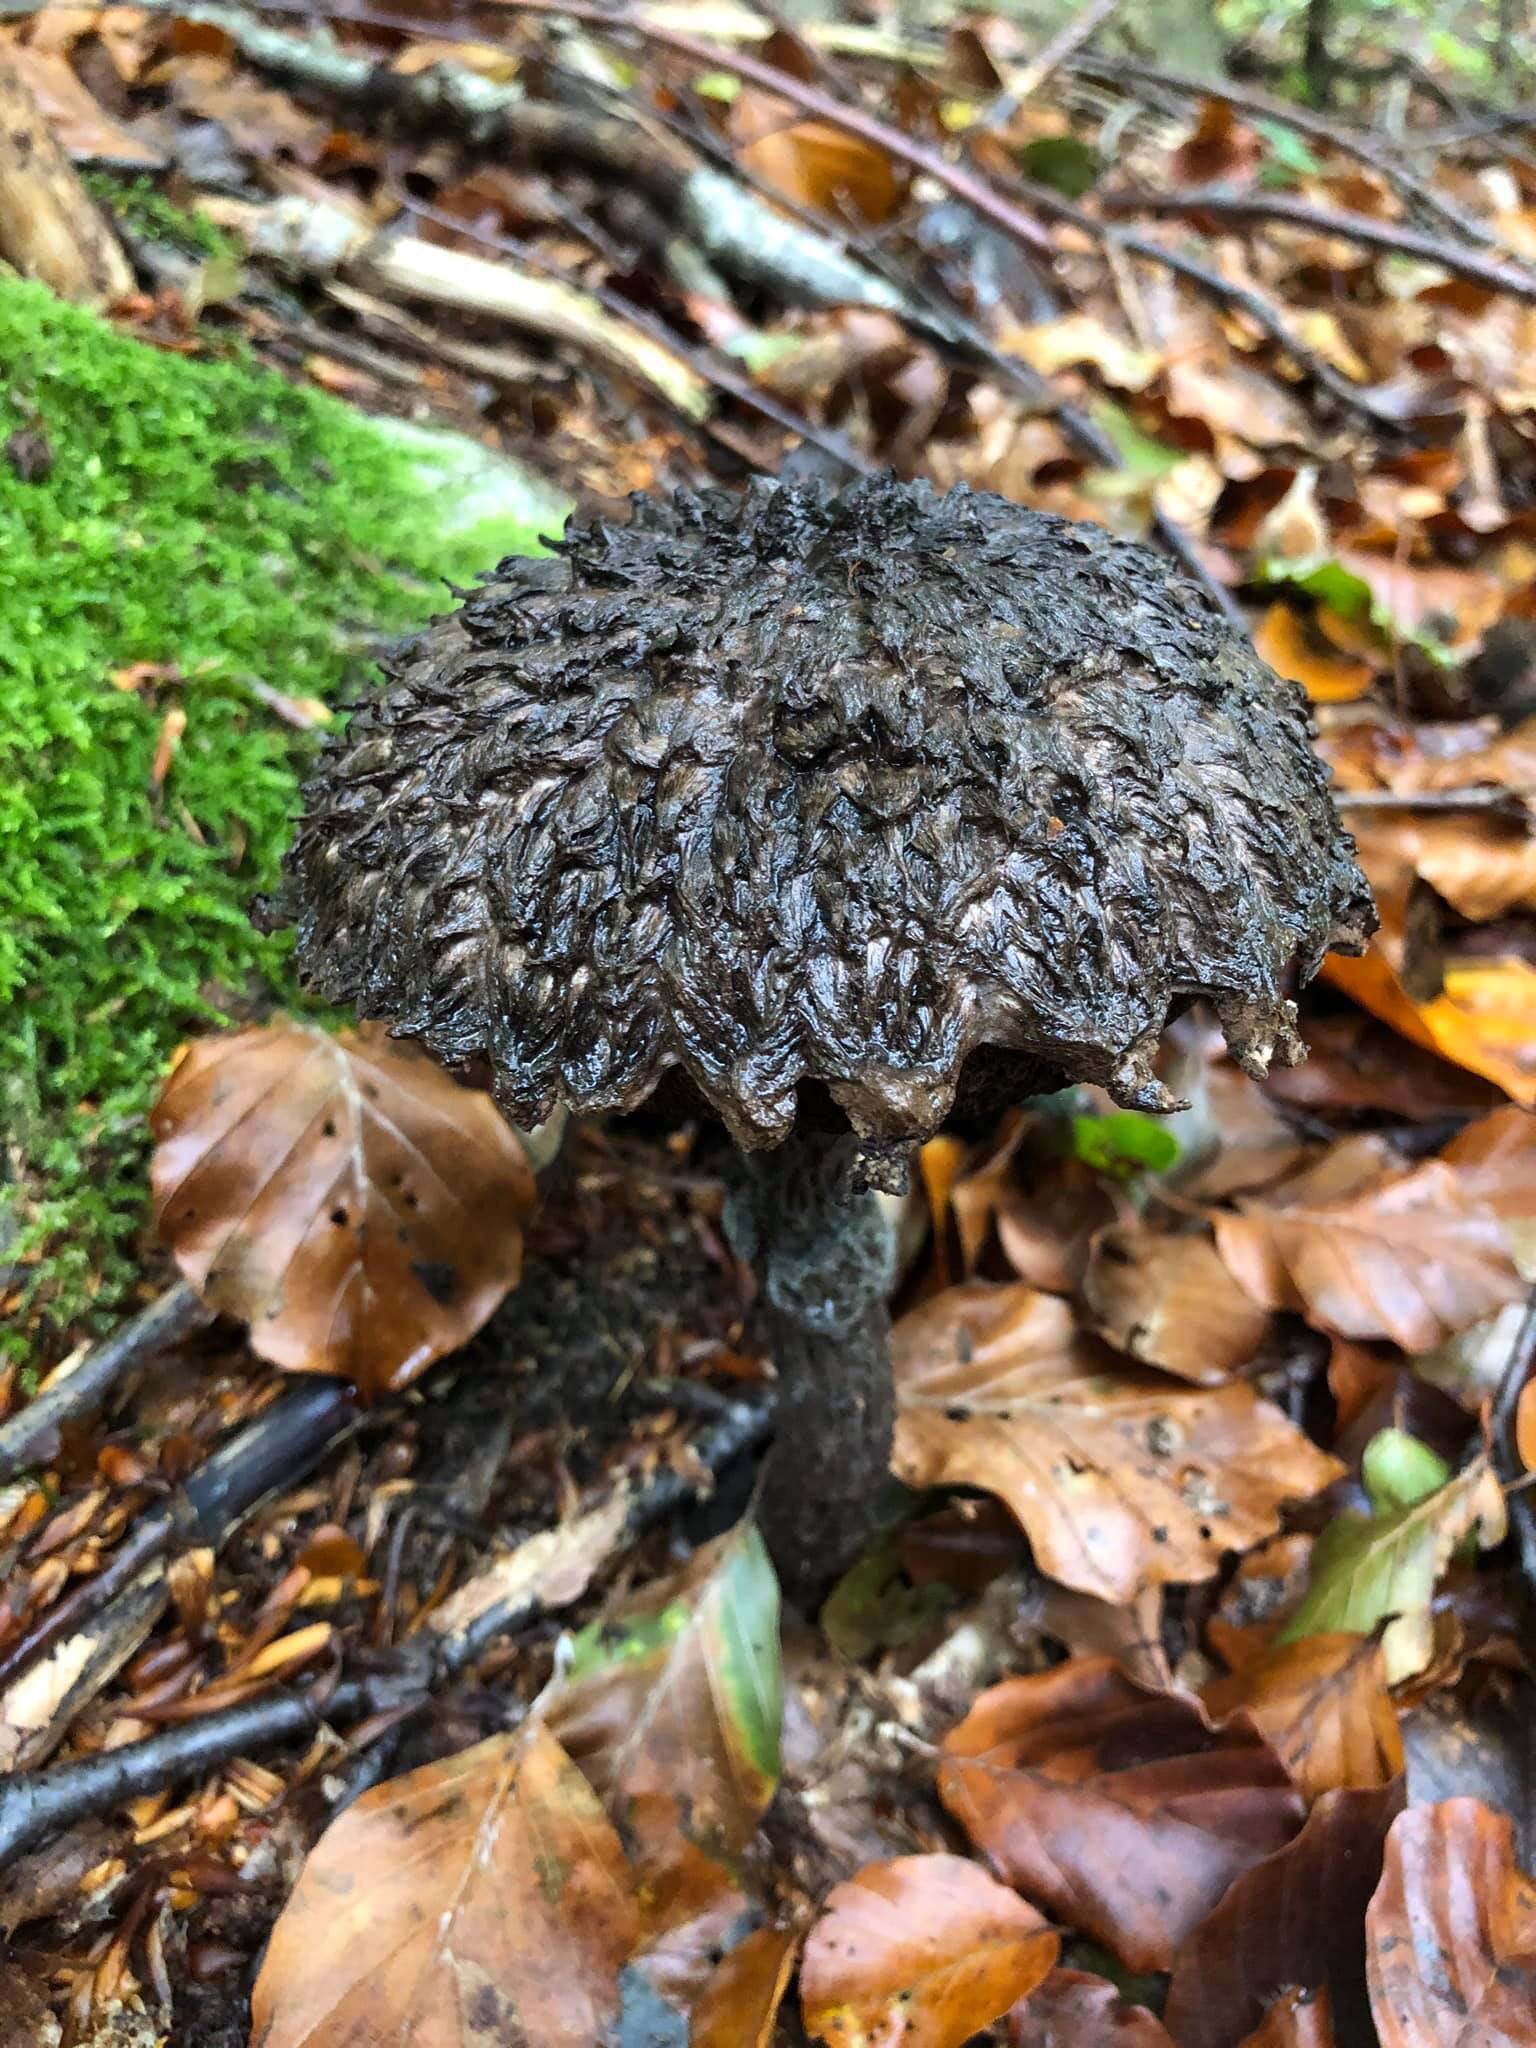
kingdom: Fungi
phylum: Basidiomycota
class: Agaricomycetes
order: Boletales
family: Boletaceae
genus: Strobilomyces
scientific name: Strobilomyces strobilaceus
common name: koglerørhat
